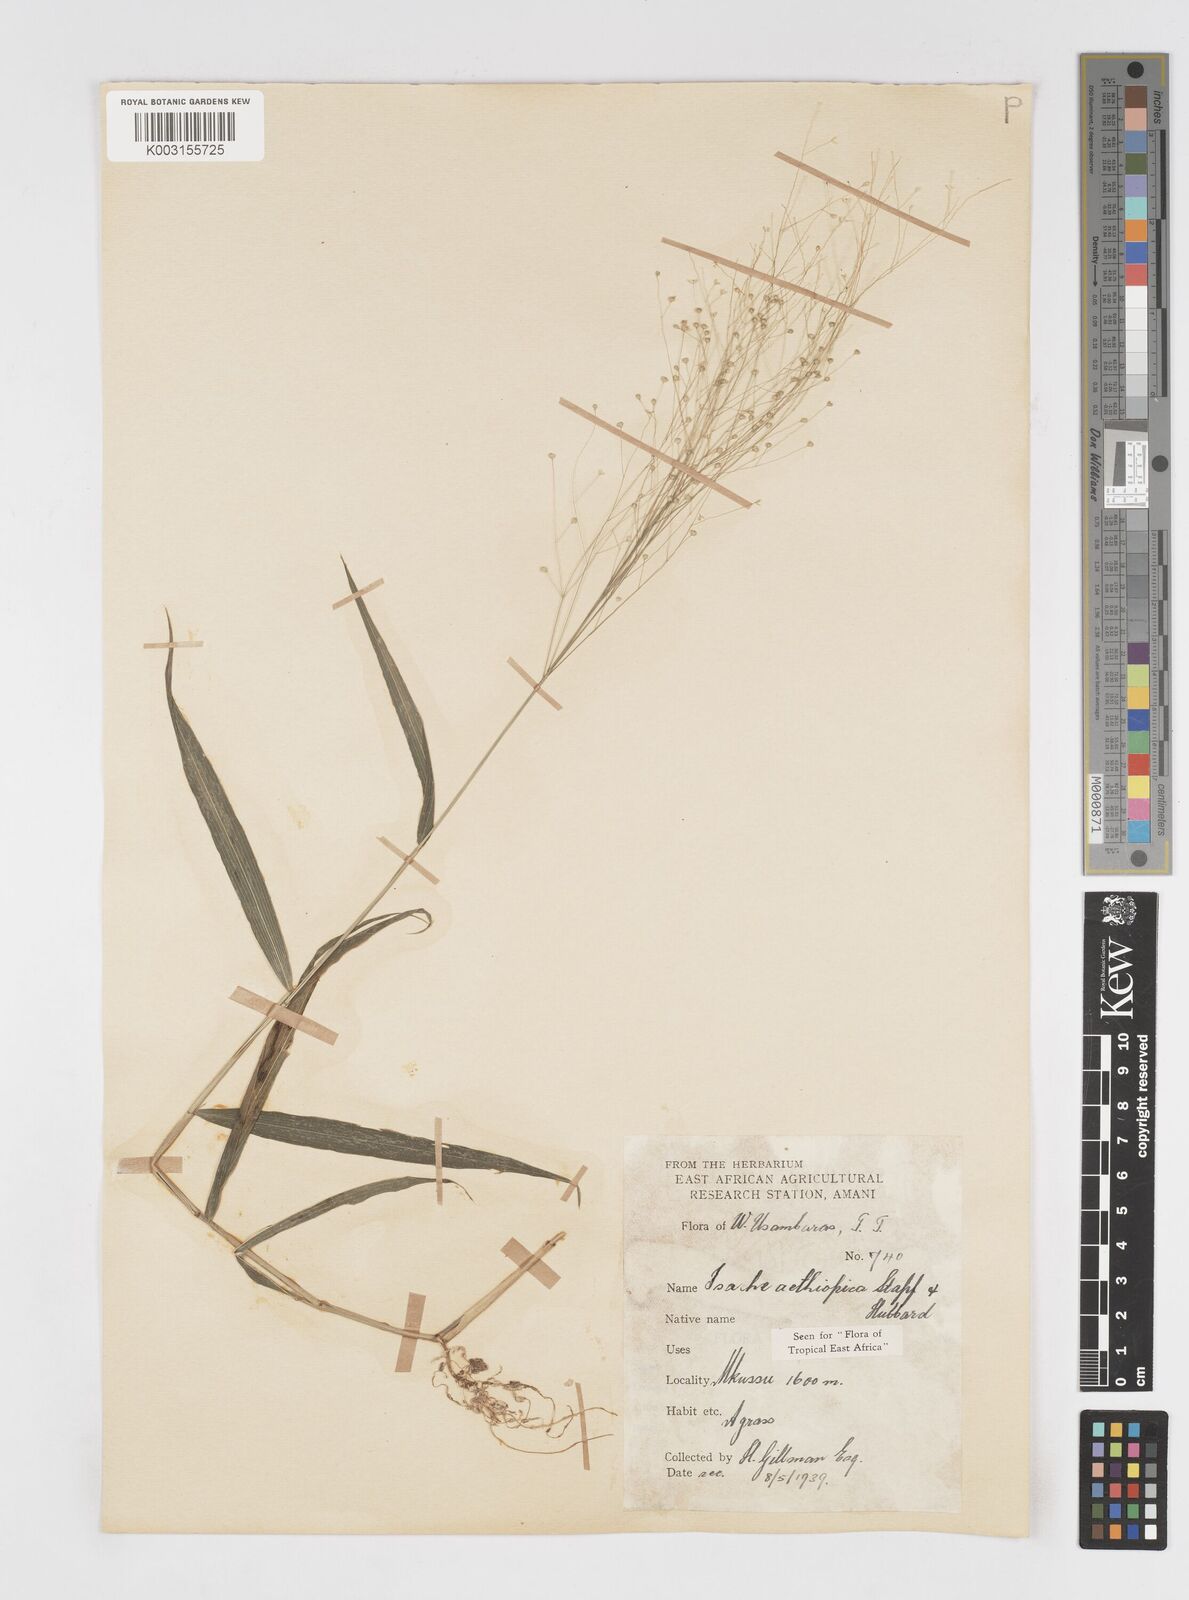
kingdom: Plantae
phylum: Tracheophyta
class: Liliopsida
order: Poales
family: Poaceae
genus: Isachne
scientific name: Isachne mauritiana
